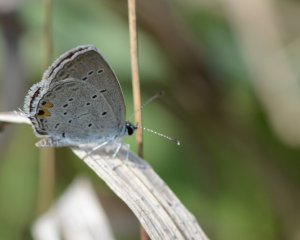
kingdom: Animalia
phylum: Arthropoda
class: Insecta
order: Lepidoptera
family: Lycaenidae
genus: Elkalyce
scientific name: Elkalyce comyntas
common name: Eastern Tailed-Blue
